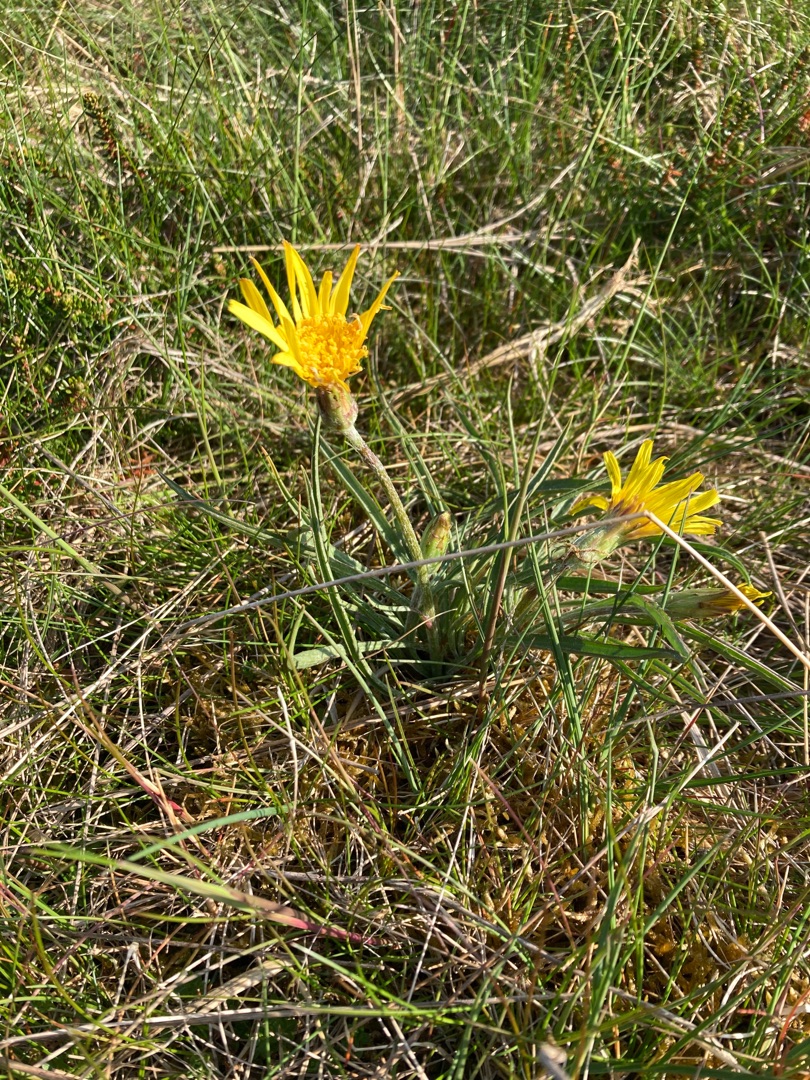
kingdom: Plantae
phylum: Tracheophyta
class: Magnoliopsida
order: Asterales
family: Asteraceae
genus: Scorzonera
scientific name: Scorzonera humilis
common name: Lav skorsoner
